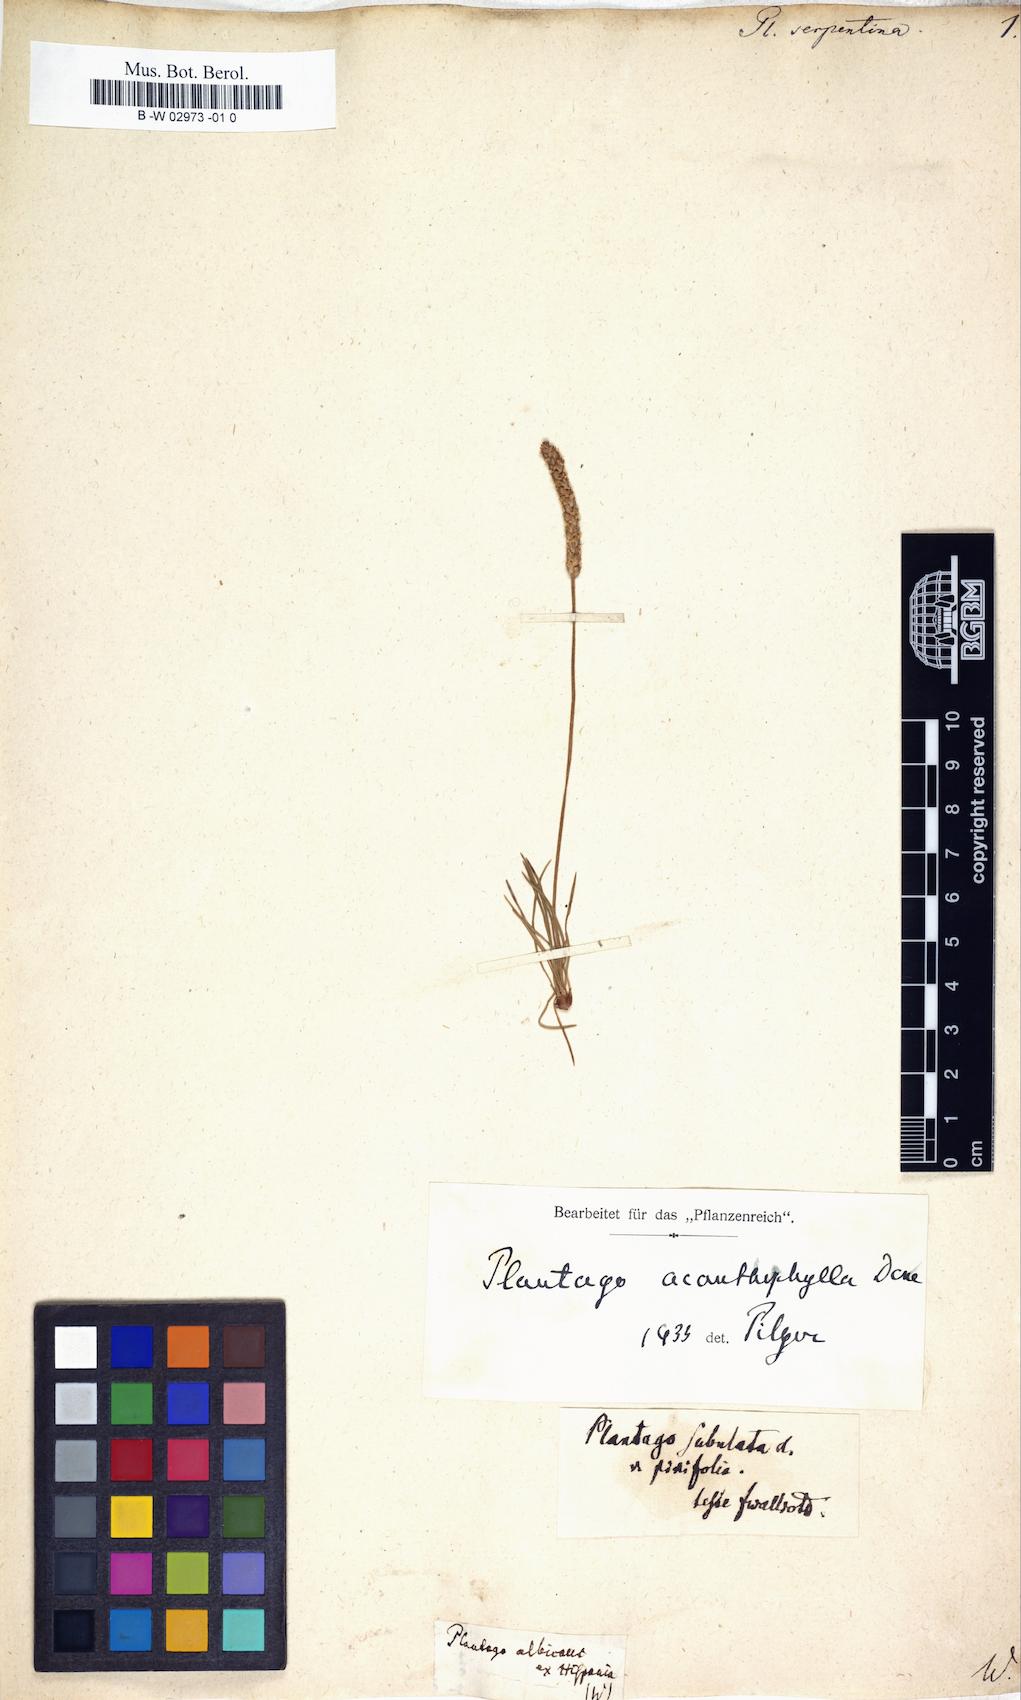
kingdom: Plantae
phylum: Tracheophyta
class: Magnoliopsida
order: Lamiales
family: Plantaginaceae
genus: Plantago
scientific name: Plantago
